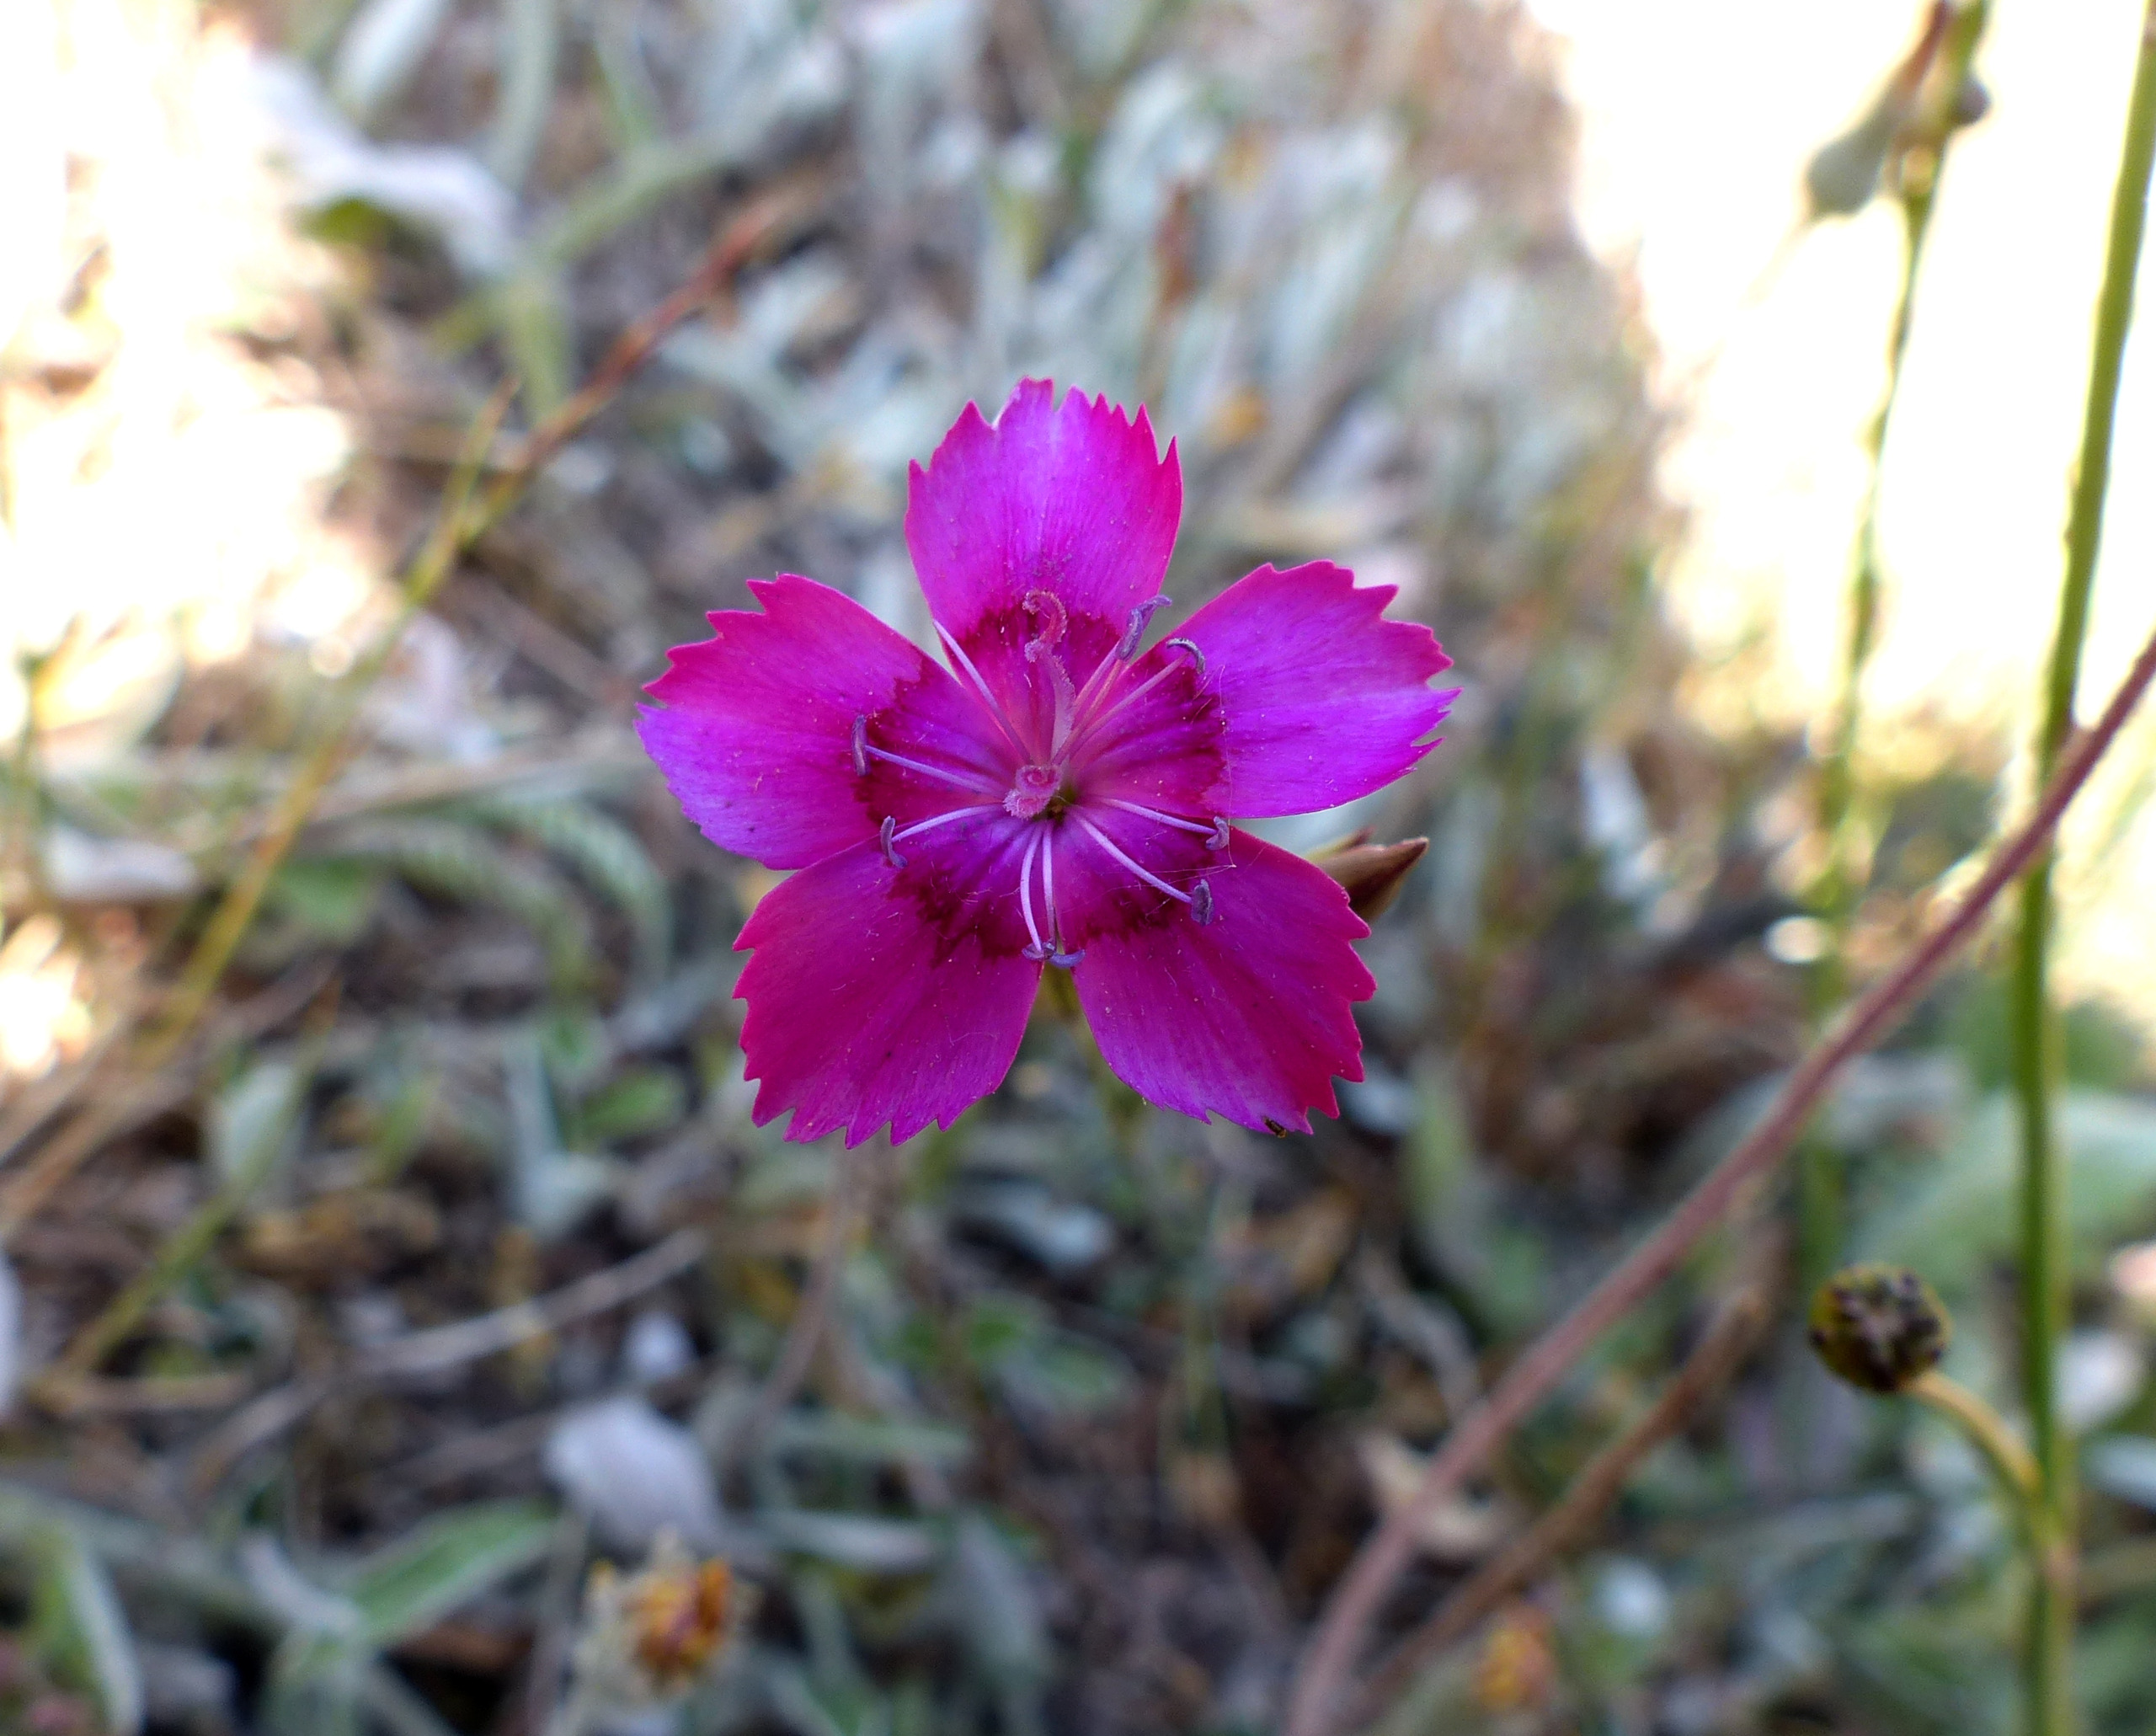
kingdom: Plantae
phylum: Tracheophyta
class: Magnoliopsida
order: Caryophyllales
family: Caryophyllaceae
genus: Dianthus
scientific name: Dianthus deltoides
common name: Bakke-nellike
